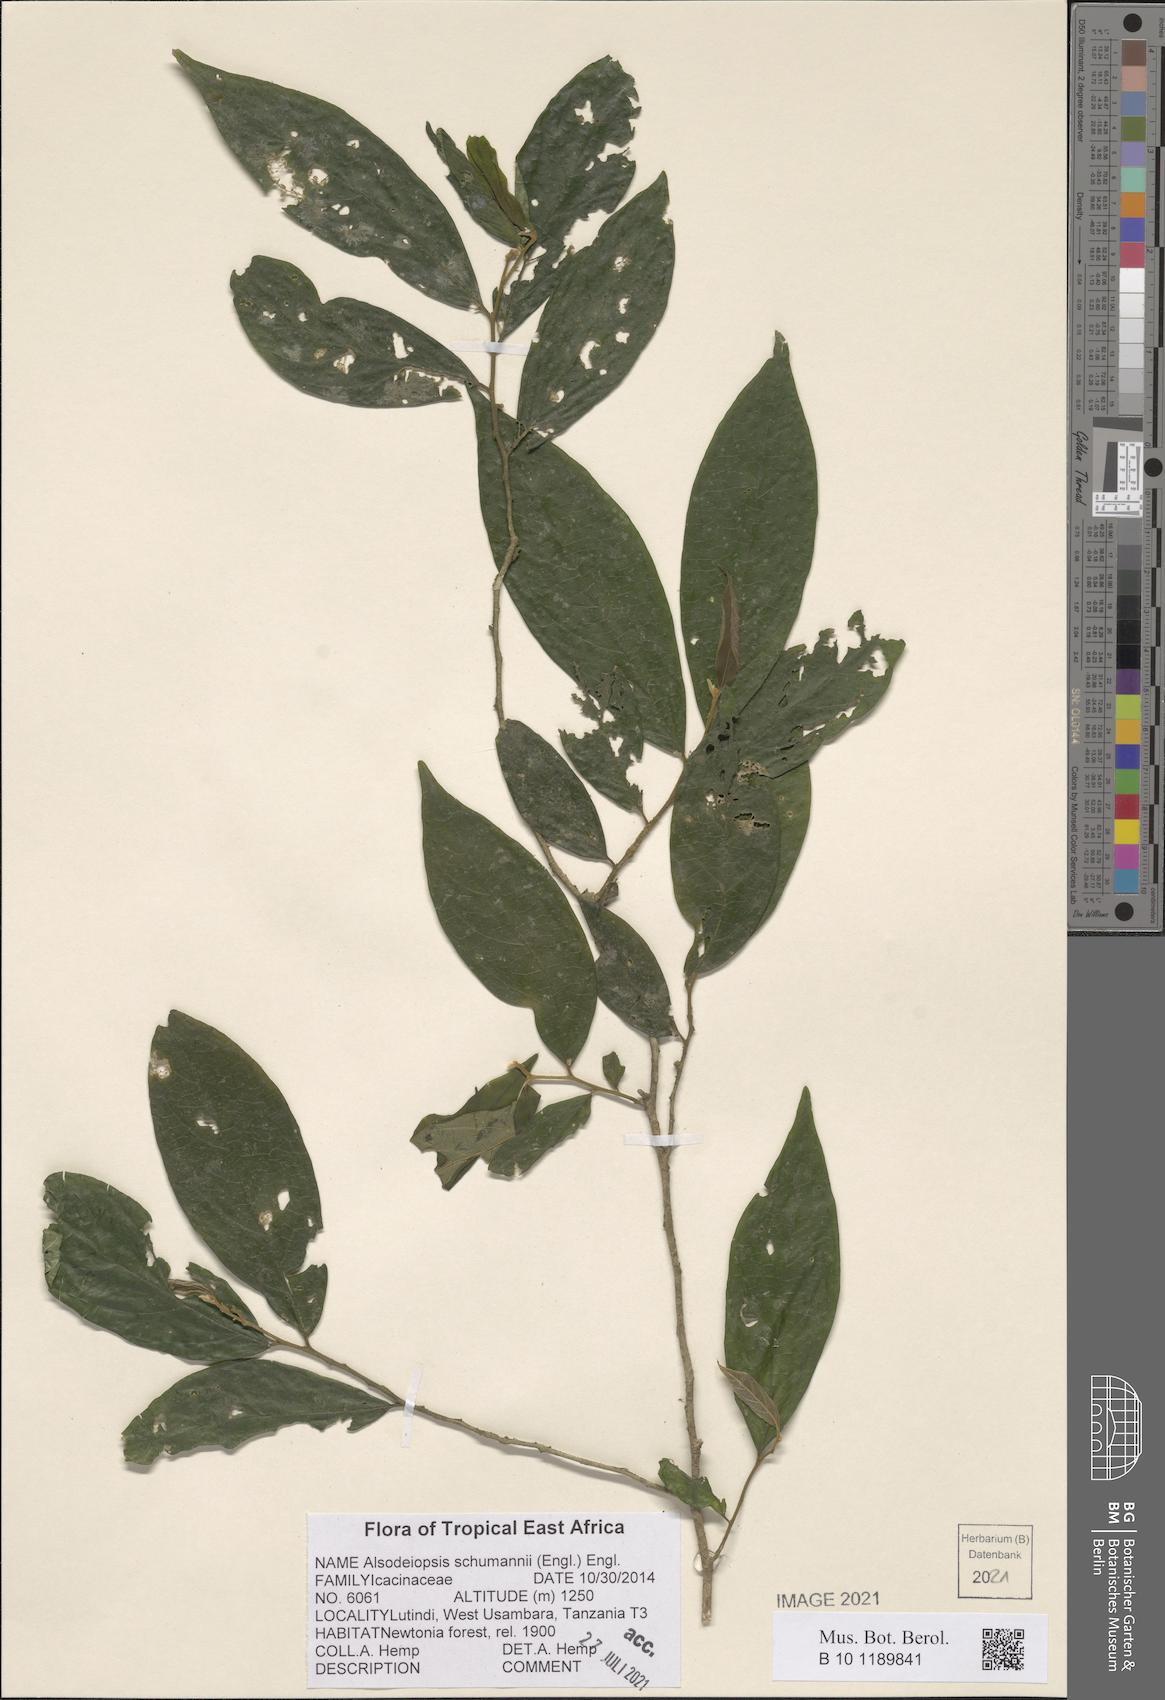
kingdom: Plantae
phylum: Tracheophyta
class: Magnoliopsida
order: Icacinales
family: Icacinaceae
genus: Alsodeiopsis
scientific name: Alsodeiopsis schumannii
